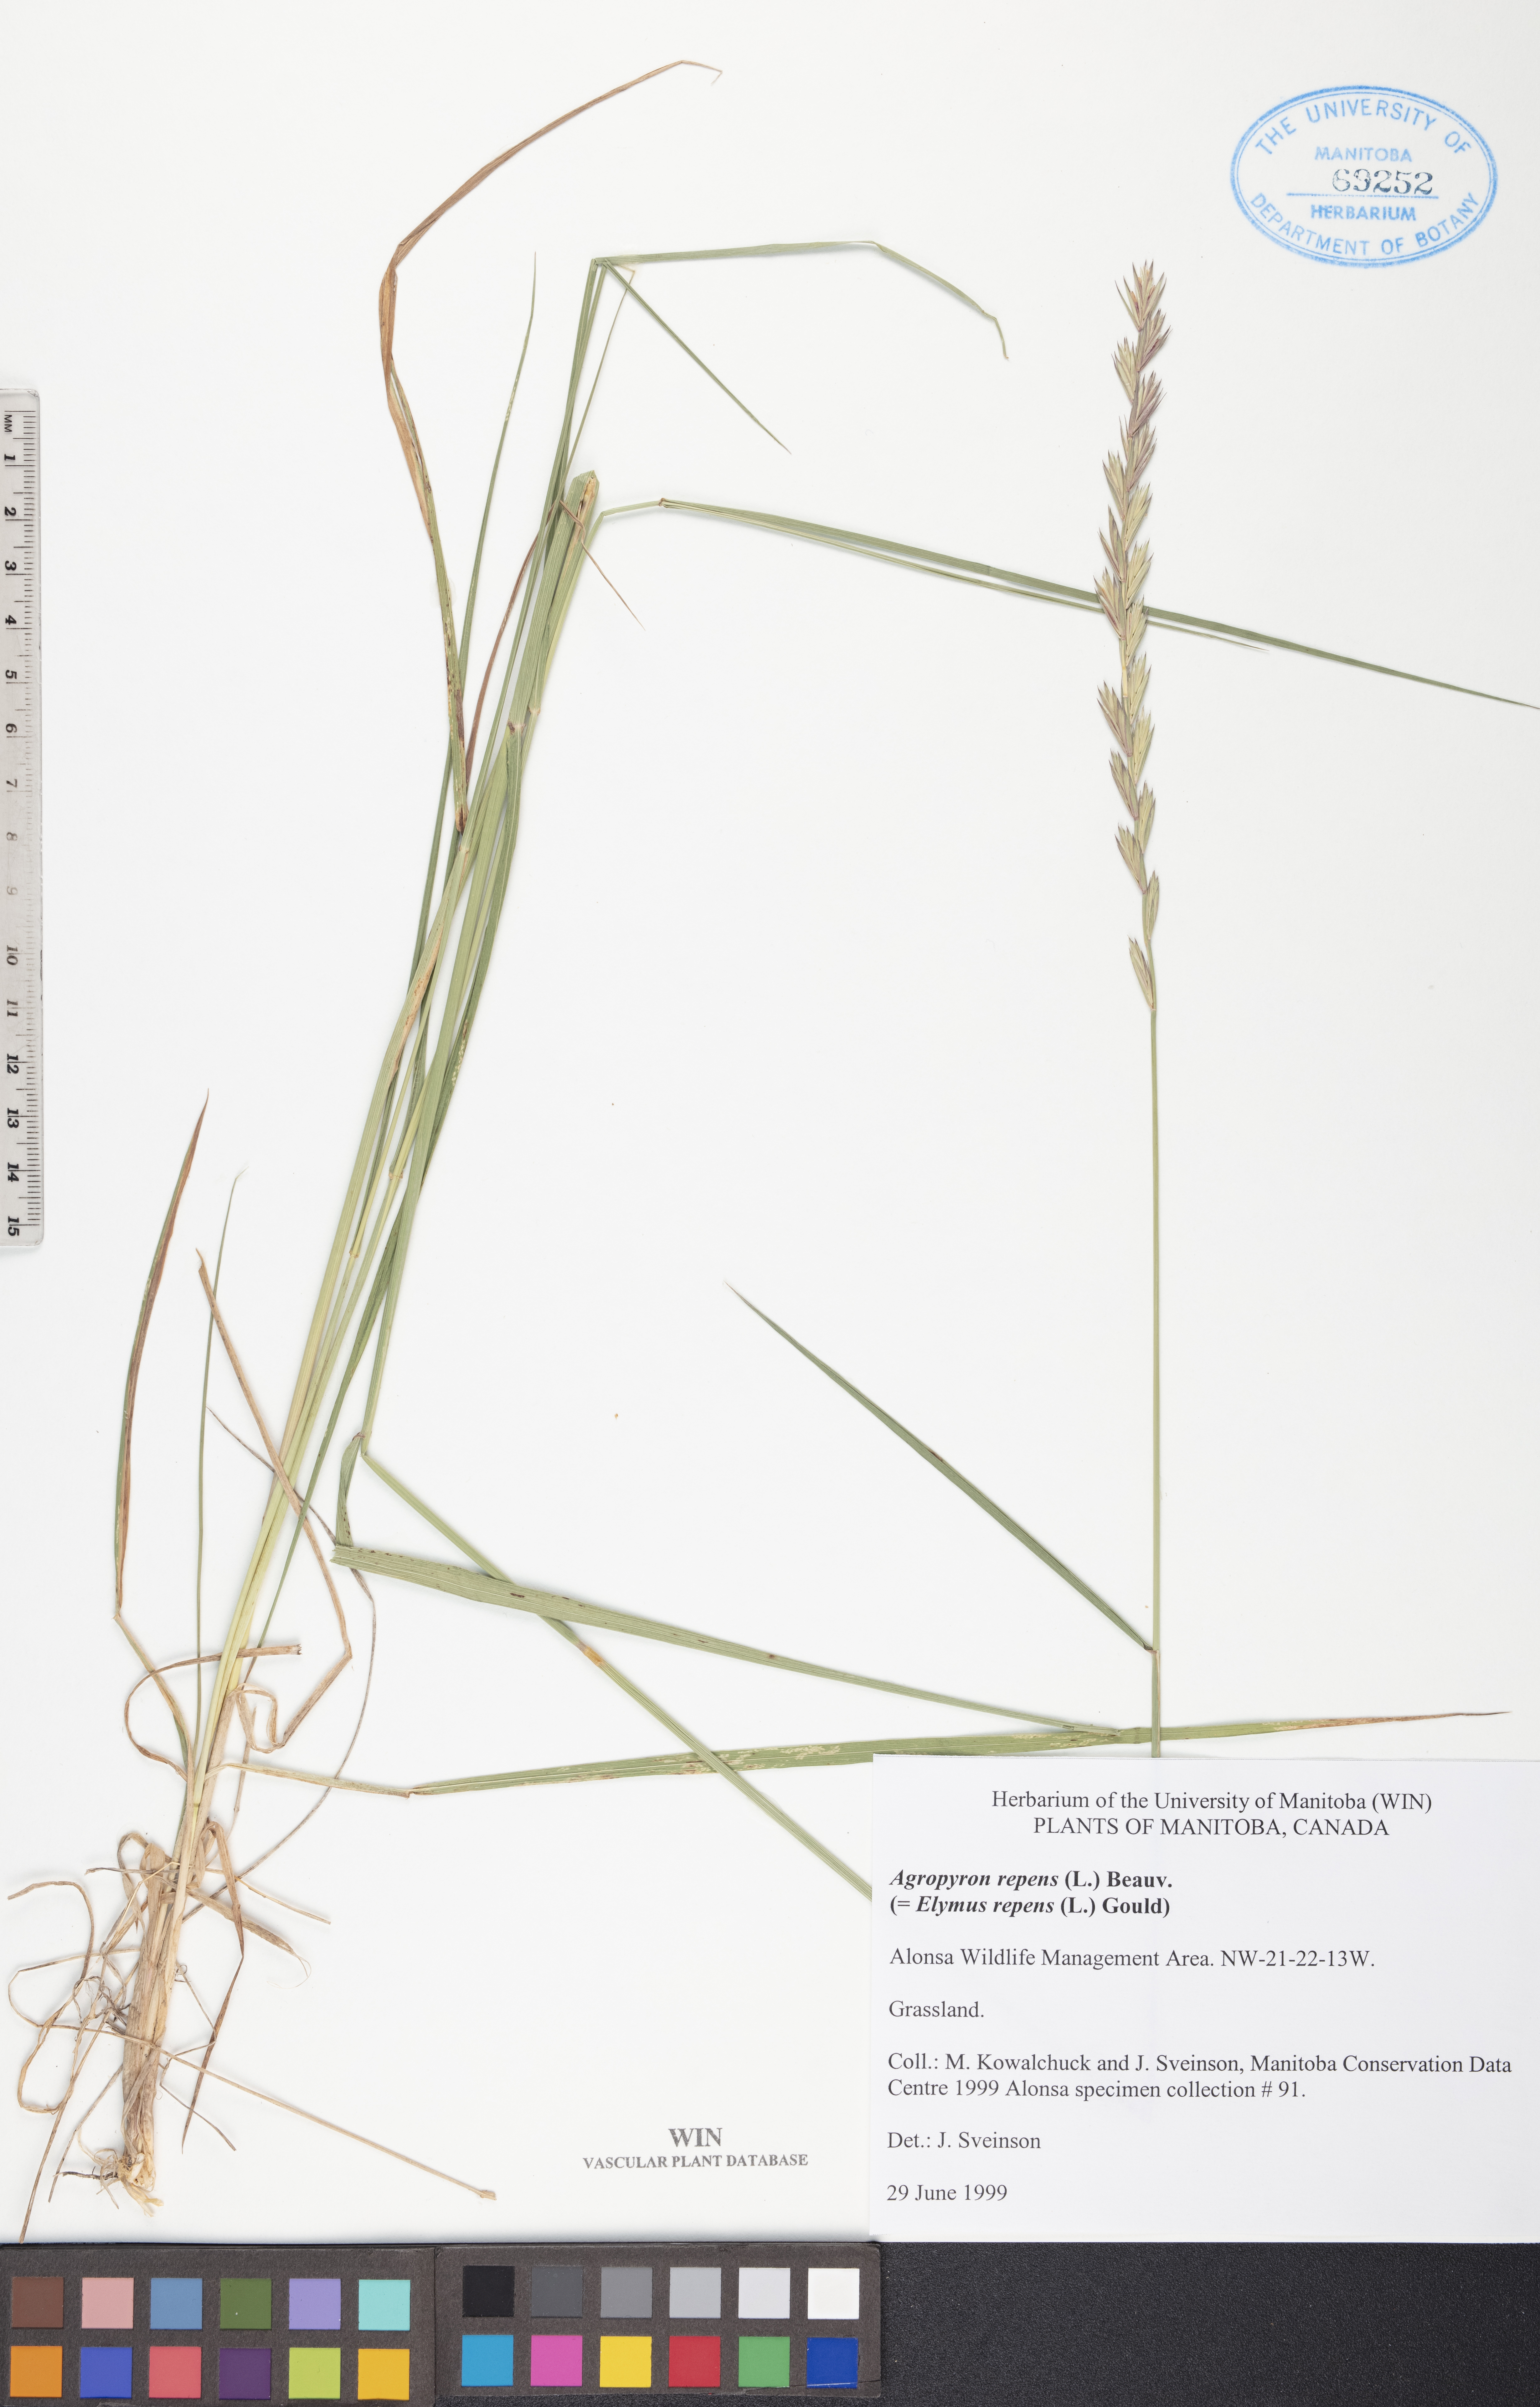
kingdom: Plantae
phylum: Tracheophyta
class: Liliopsida
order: Poales
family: Poaceae
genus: Elymus
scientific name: Elymus repens
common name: Quackgrass
